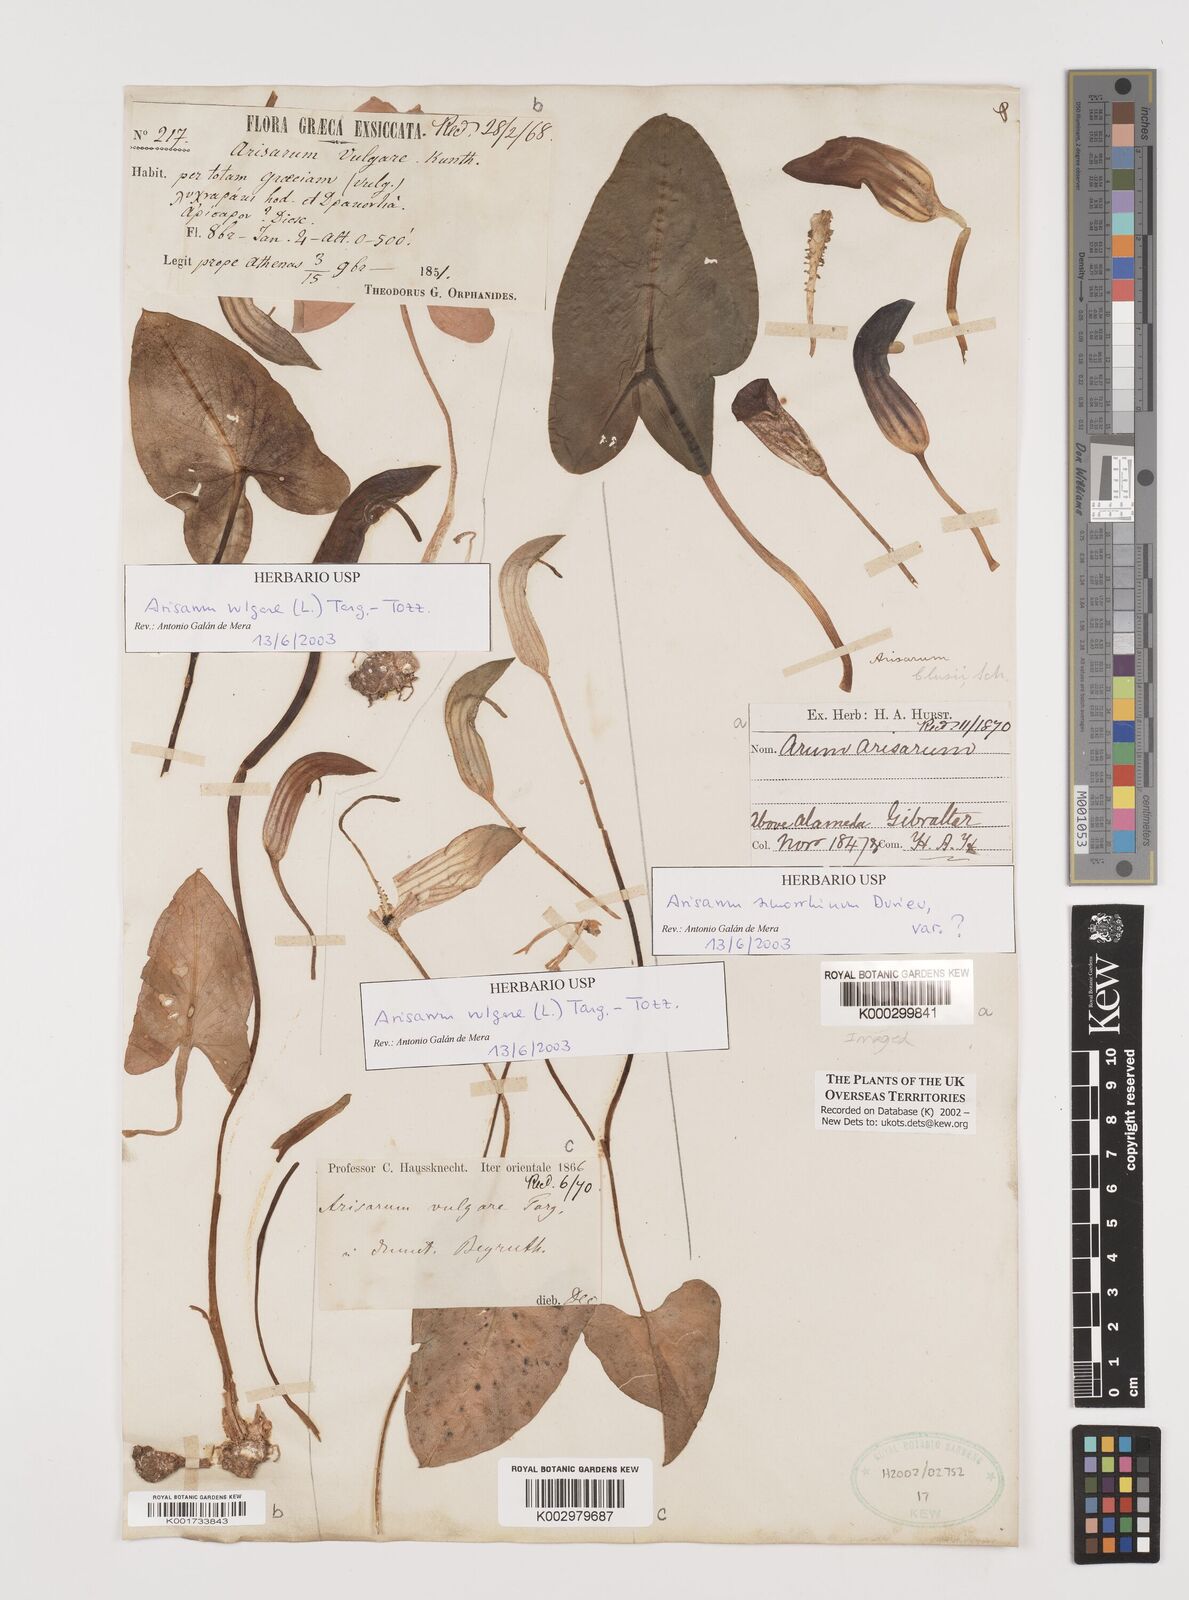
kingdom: Plantae
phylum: Tracheophyta
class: Liliopsida
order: Alismatales
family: Araceae
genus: Arisarum
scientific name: Arisarum simorrhinum
